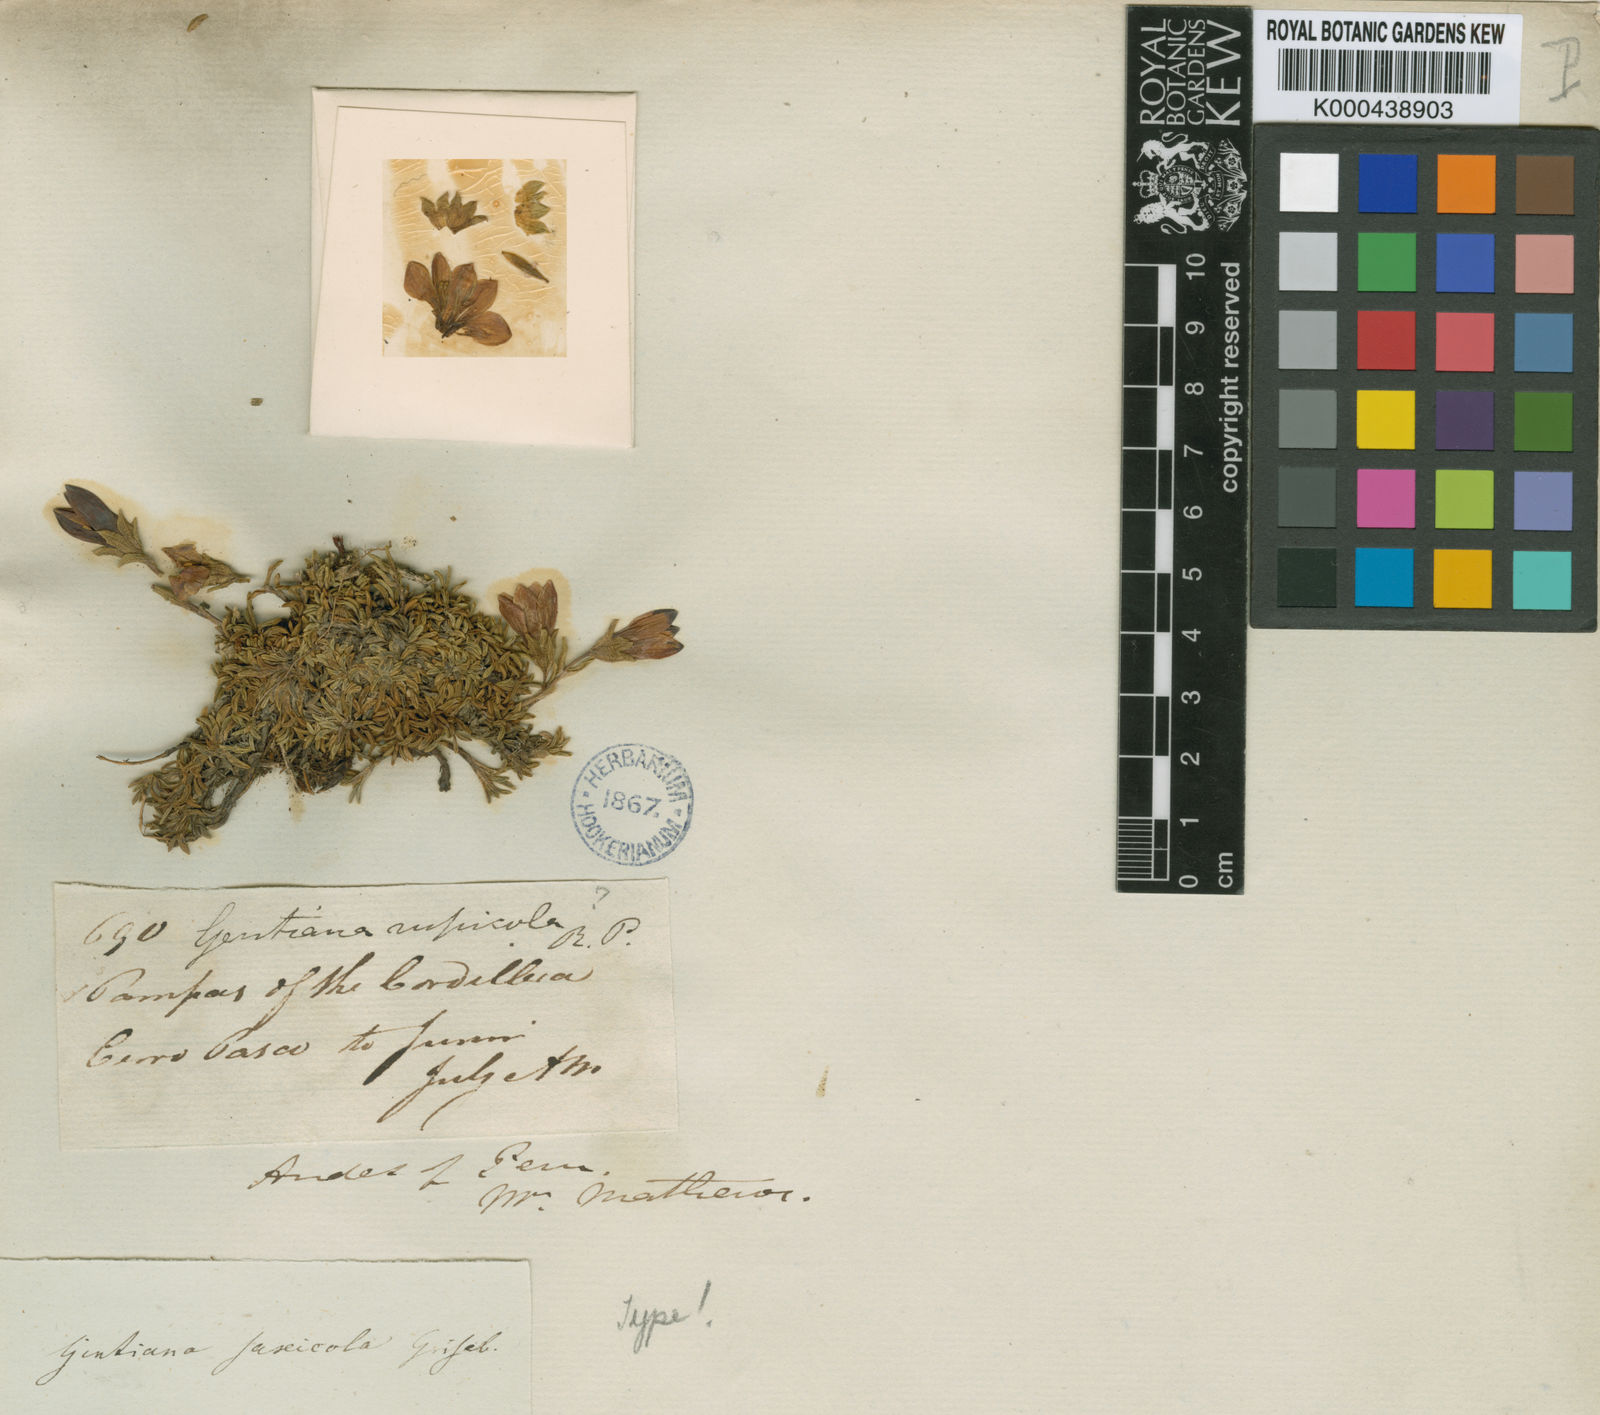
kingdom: Plantae
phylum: Tracheophyta
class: Magnoliopsida
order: Gentianales
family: Gentianaceae
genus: Gentianella
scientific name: Gentianella saxicola
